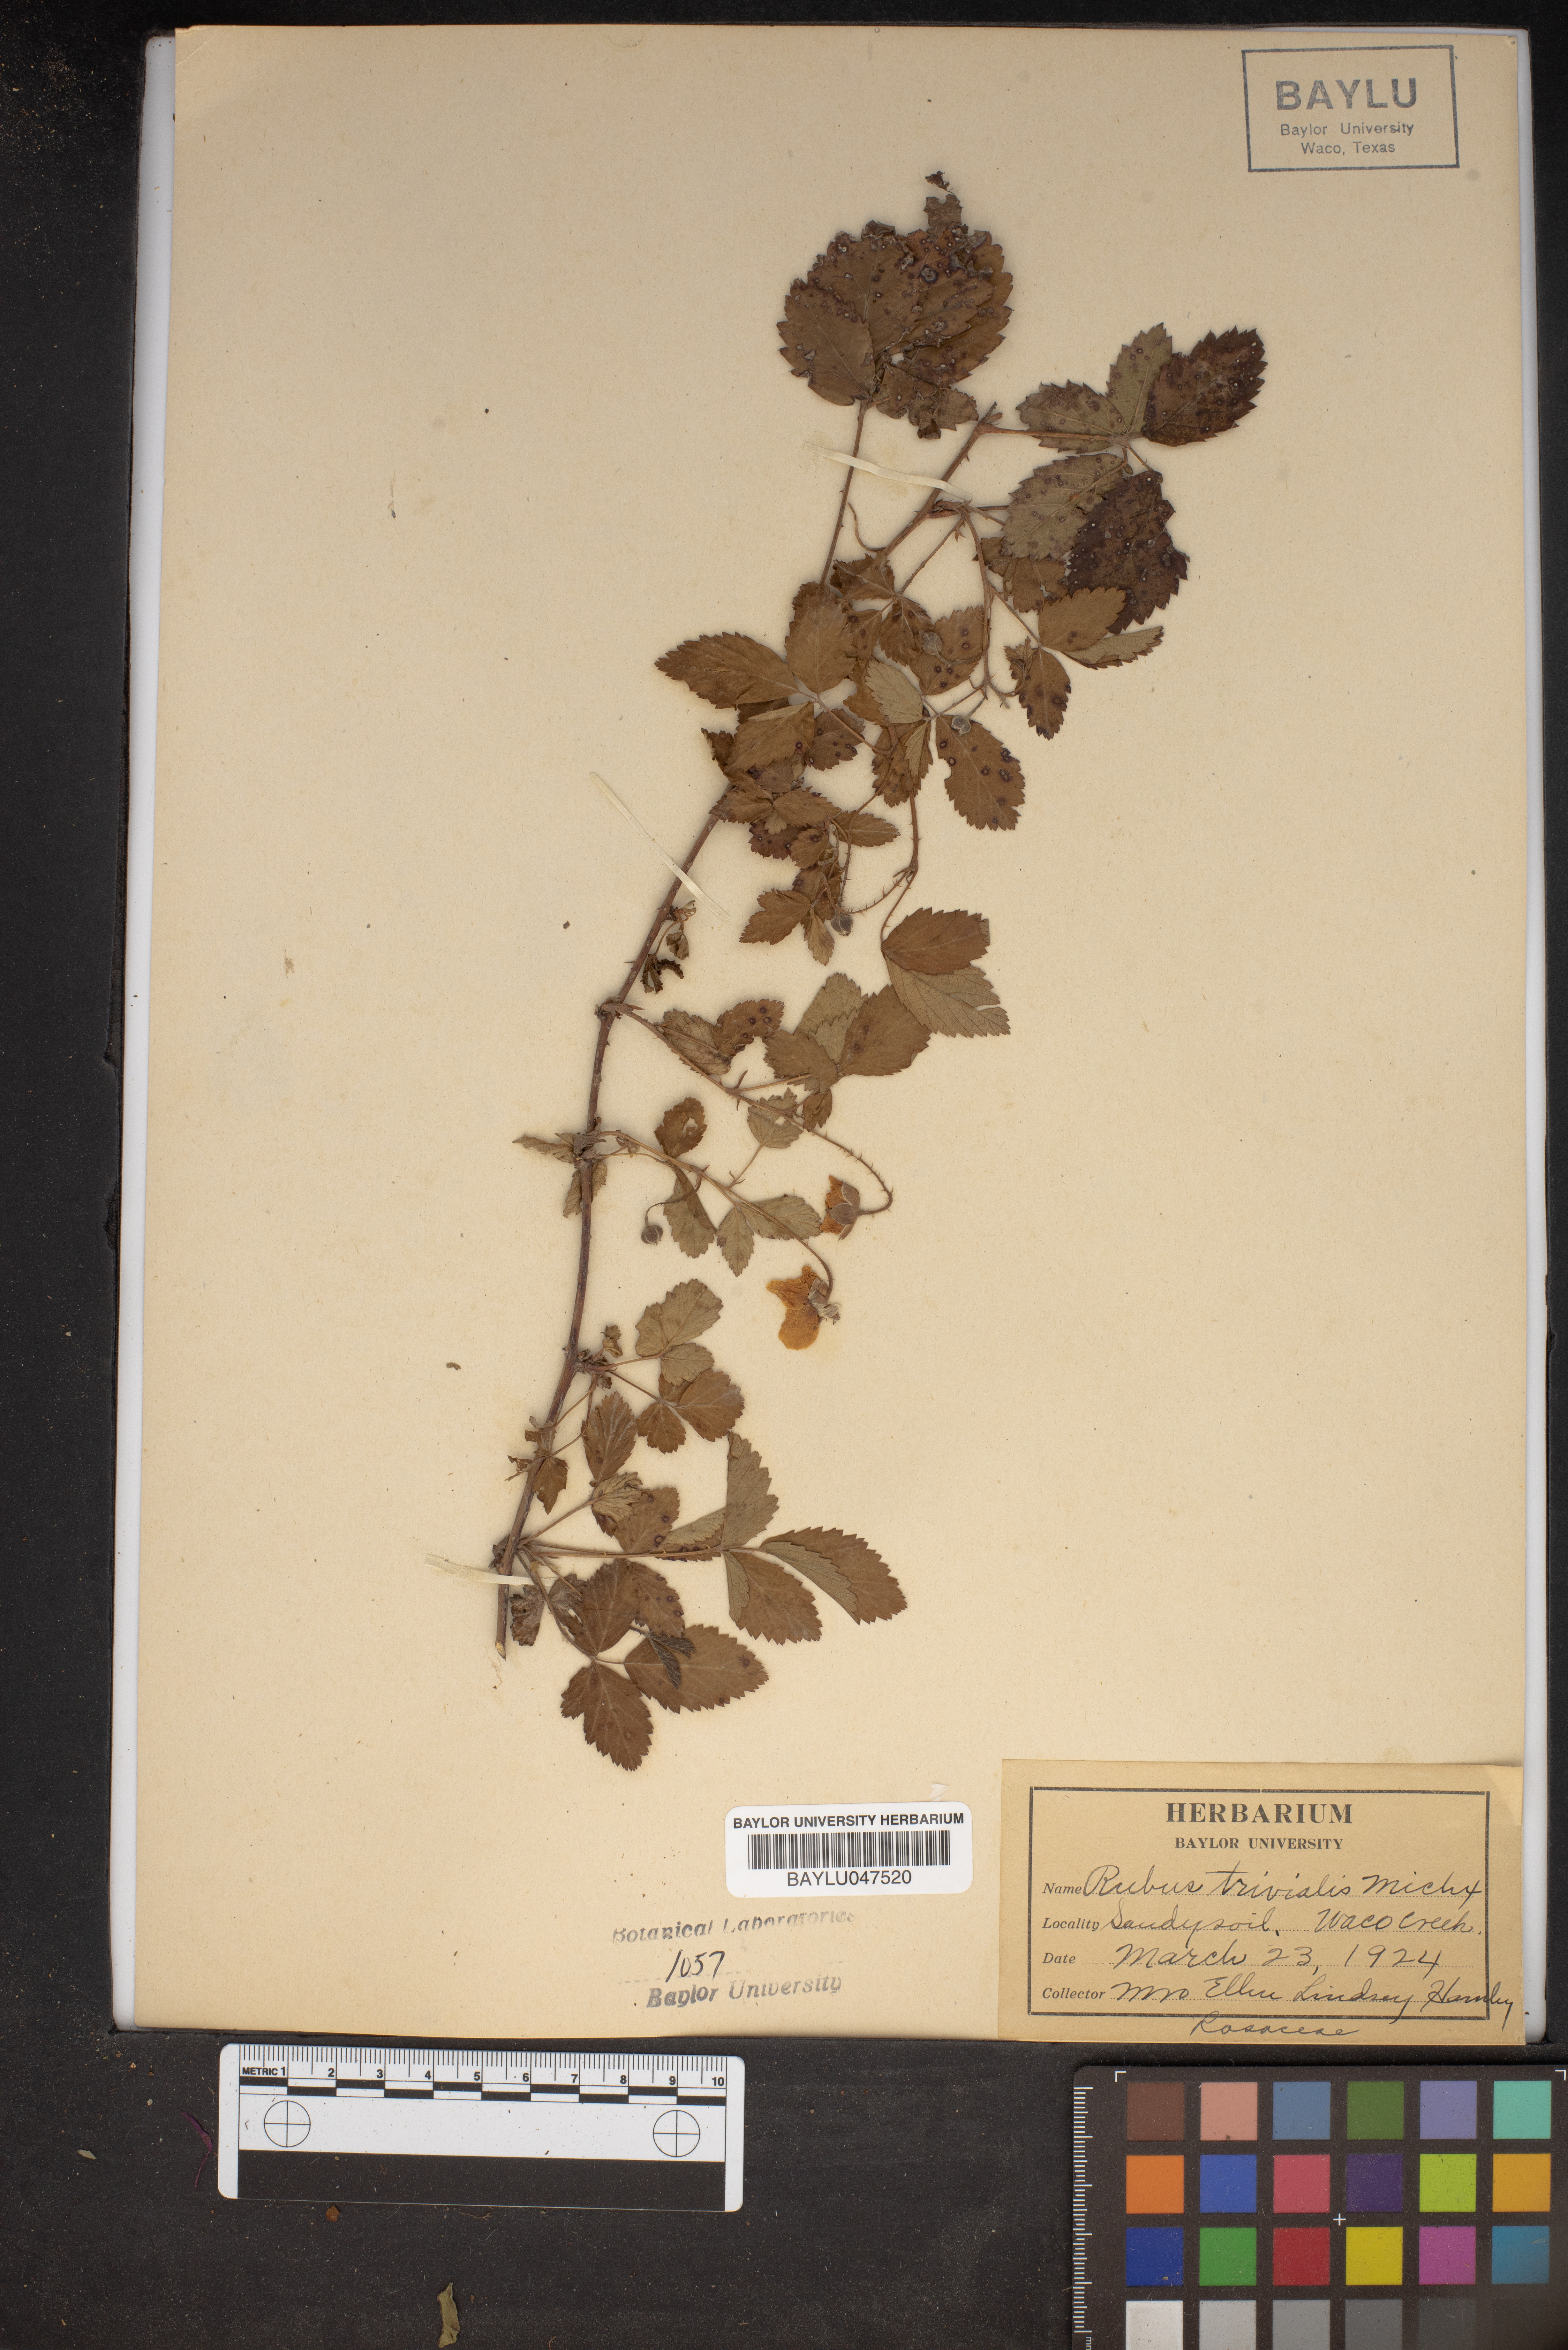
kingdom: Plantae
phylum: Tracheophyta
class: Magnoliopsida
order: Rosales
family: Rosaceae
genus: Rubus
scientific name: Rubus trivialis
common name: Southern dewberry
